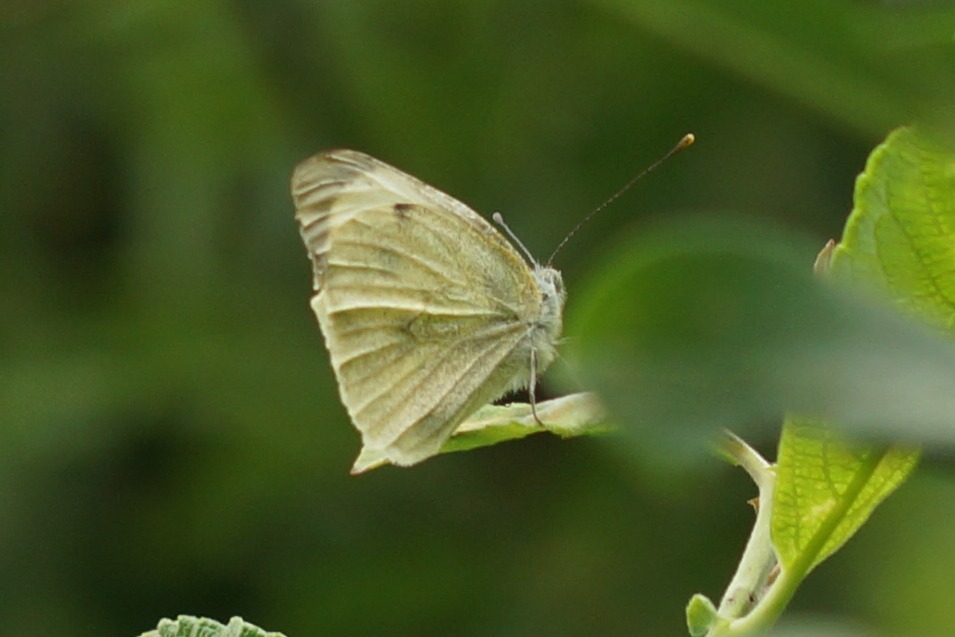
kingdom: Animalia
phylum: Arthropoda
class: Insecta
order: Lepidoptera
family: Pieridae
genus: Pieris
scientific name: Pieris brassicae
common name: Stor kålsommerfugl
